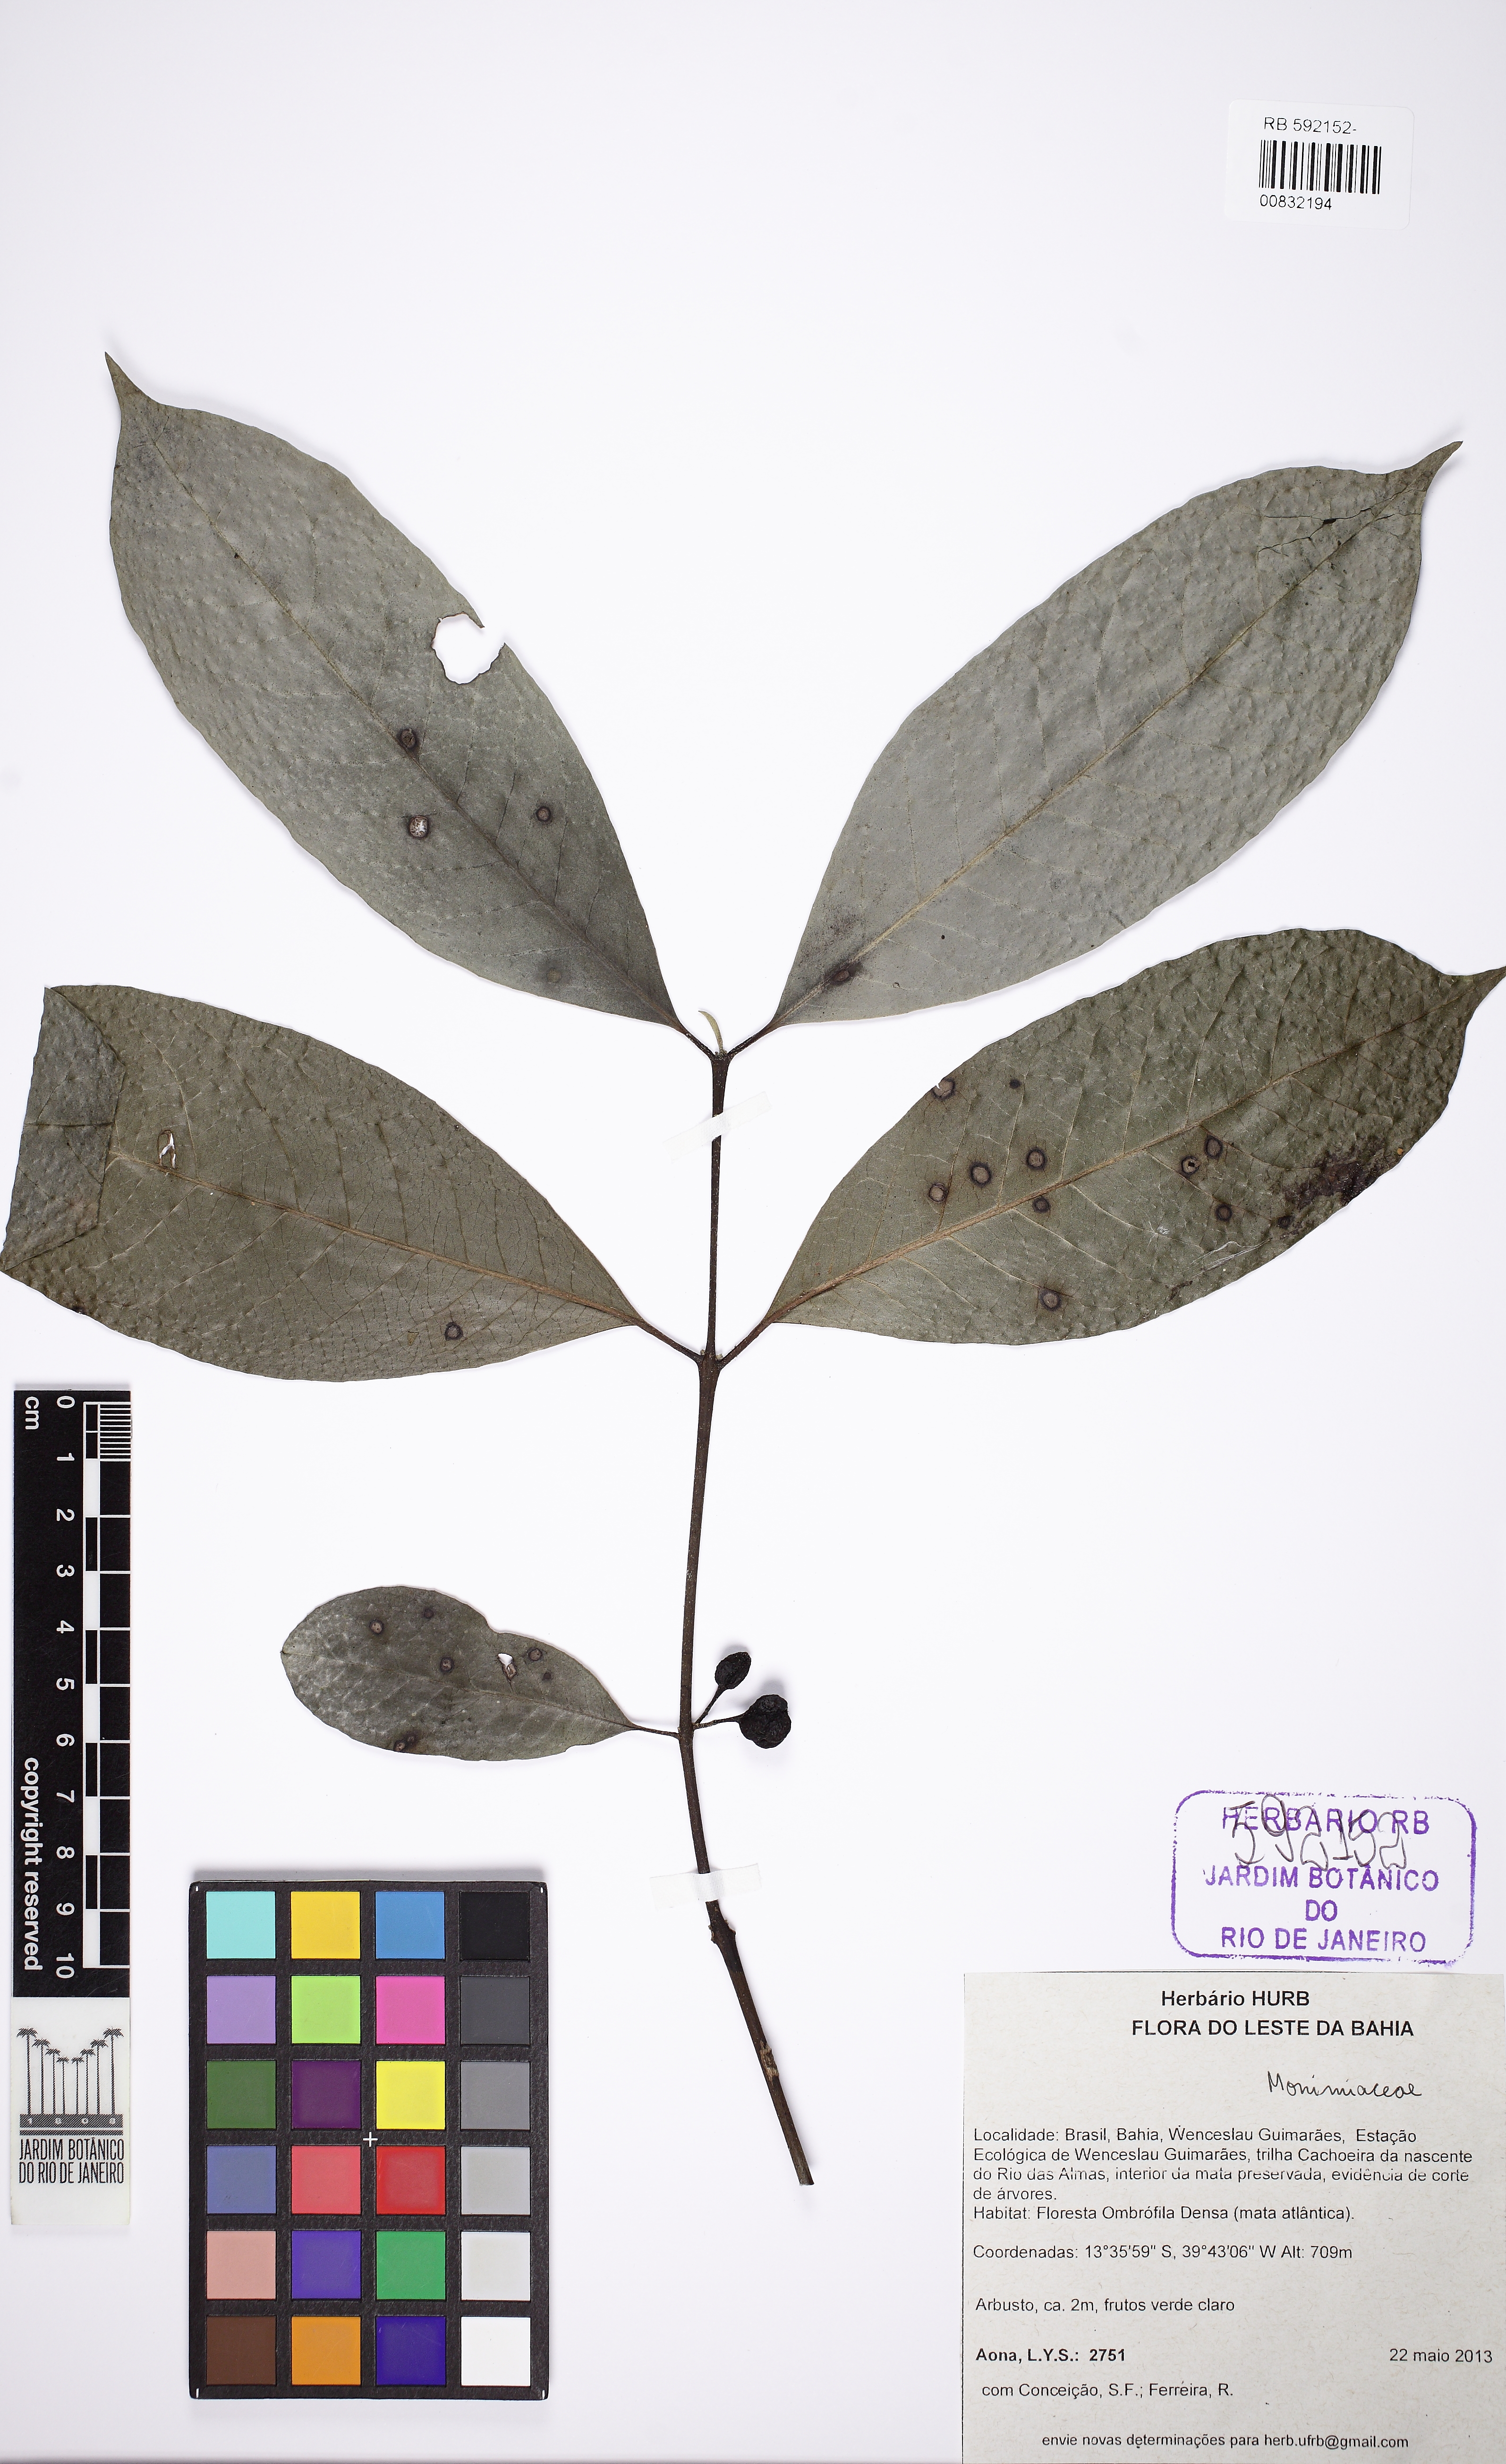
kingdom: Plantae
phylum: Tracheophyta
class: Magnoliopsida
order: Laurales
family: Siparunaceae
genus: Siparuna
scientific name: Siparuna guianensis
